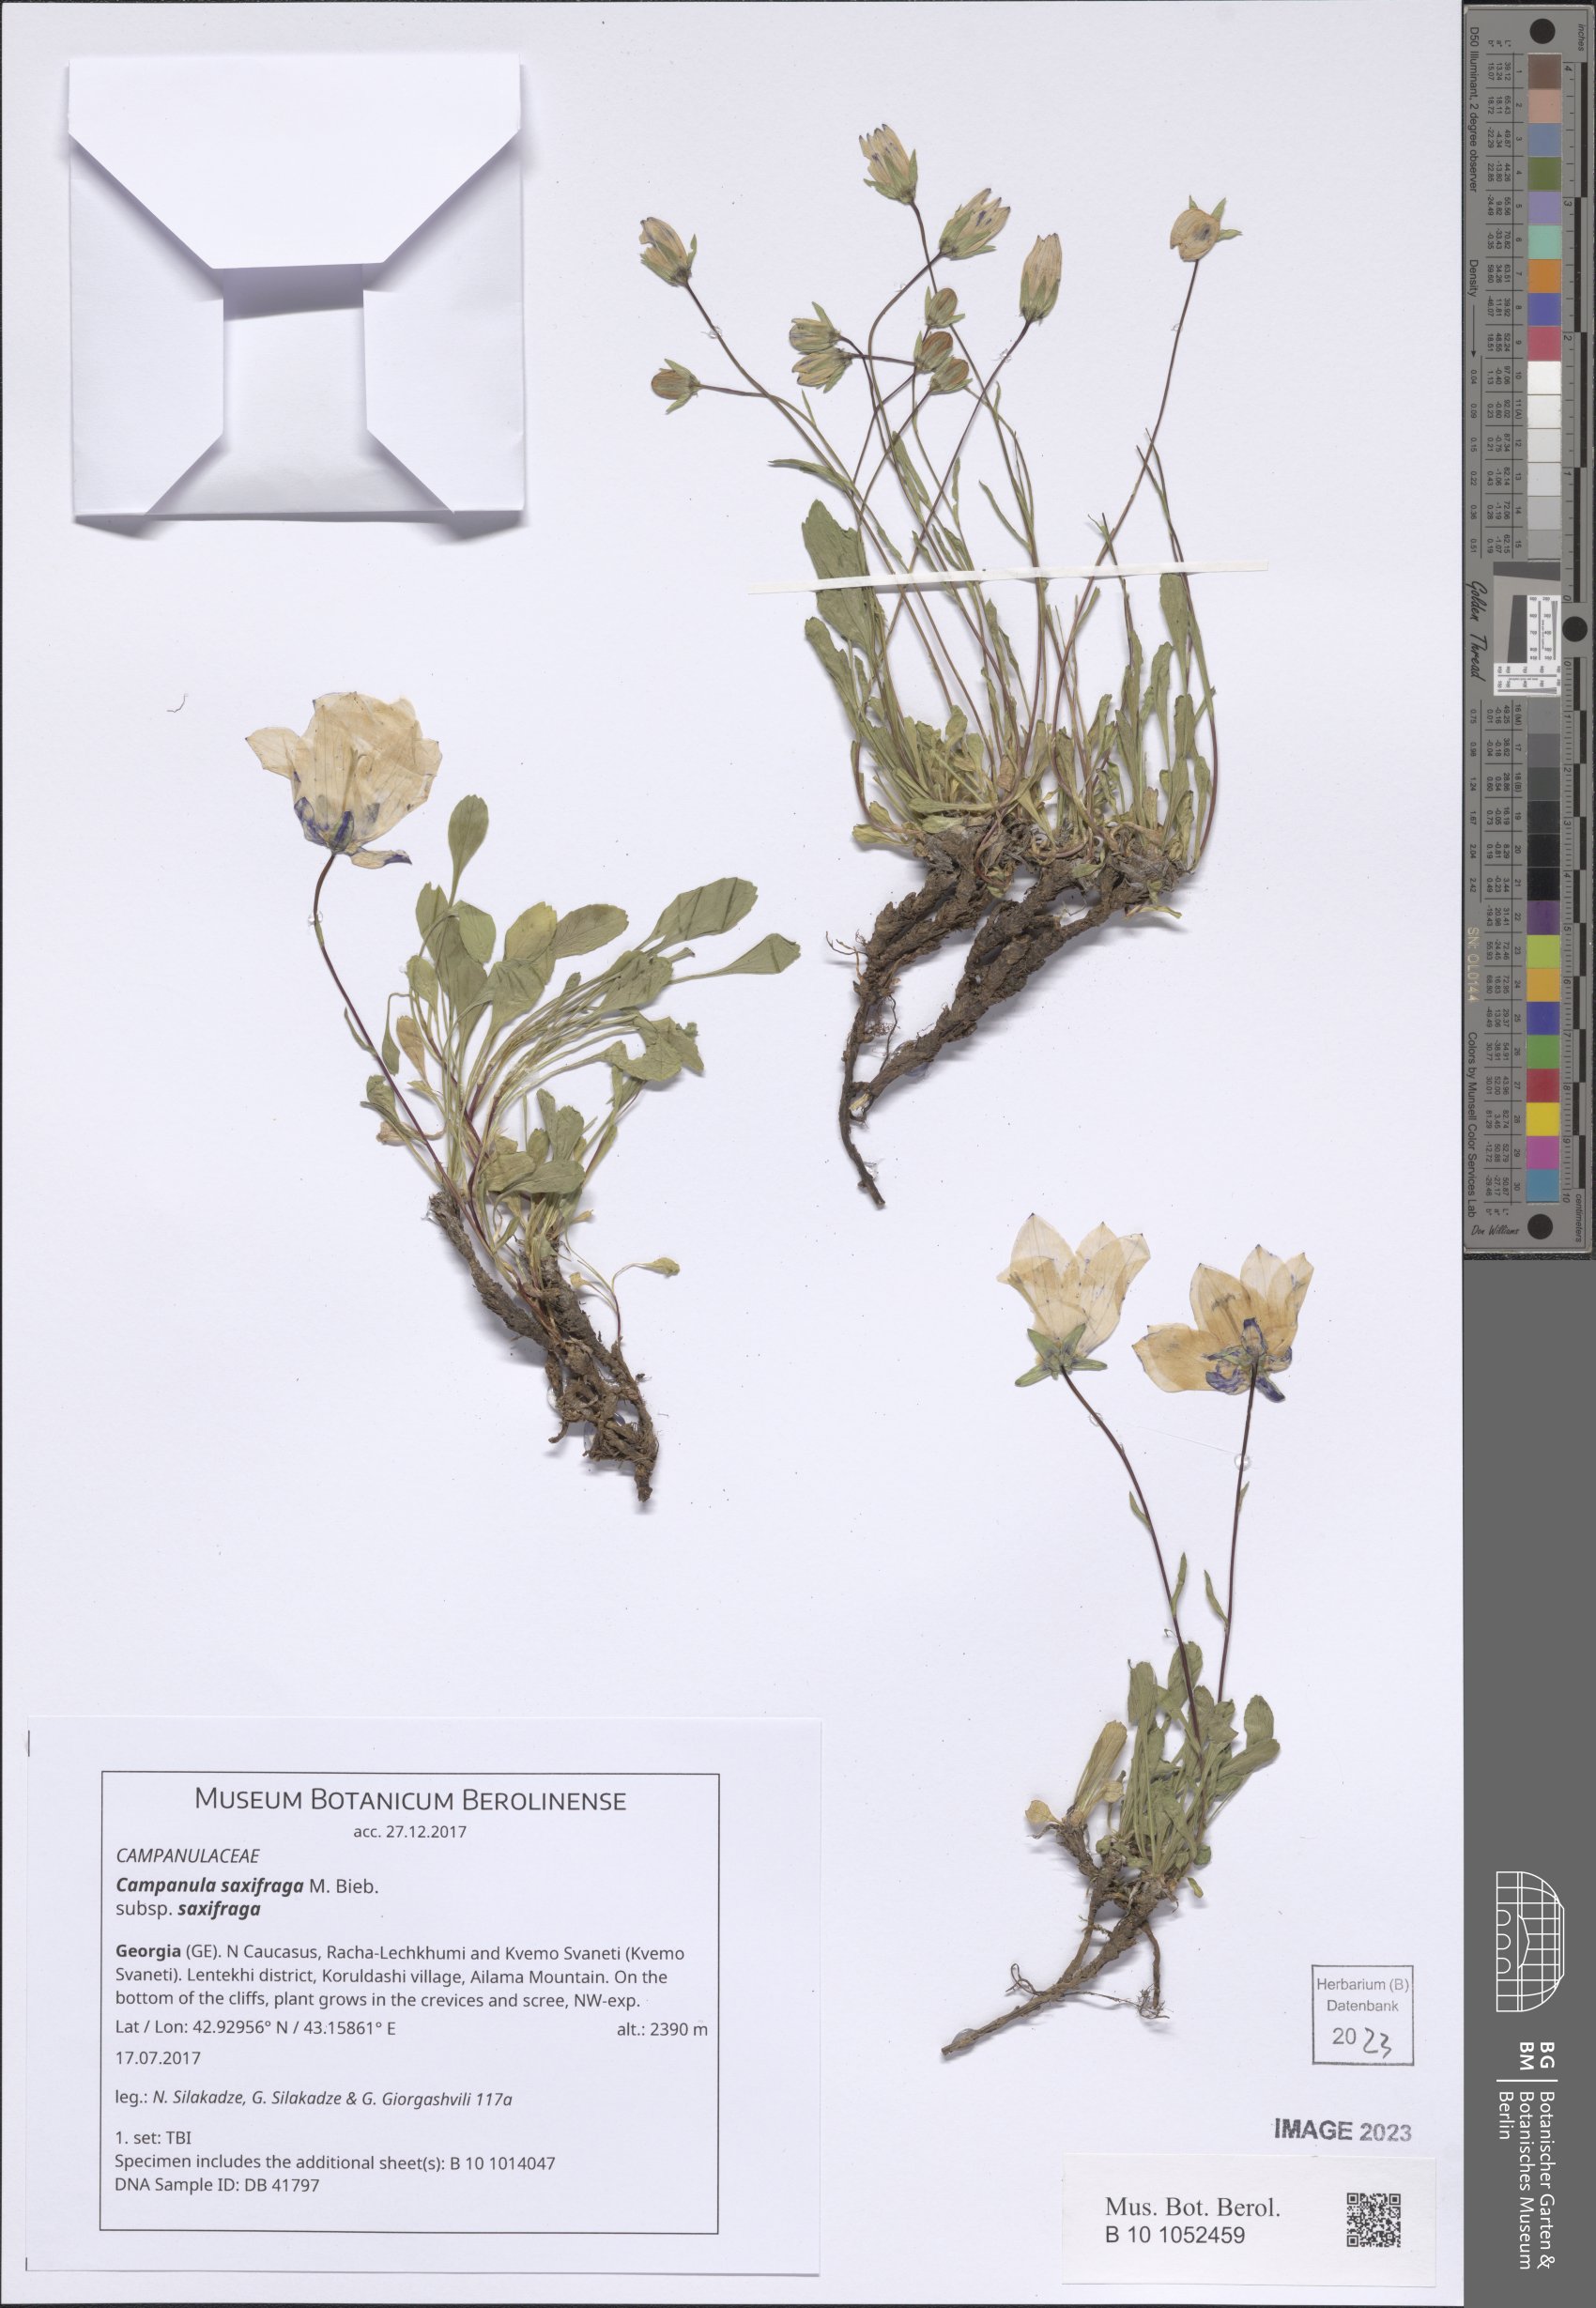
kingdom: Plantae
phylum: Tracheophyta
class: Magnoliopsida
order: Asterales
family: Campanulaceae
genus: Campanula
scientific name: Campanula saxifraga
